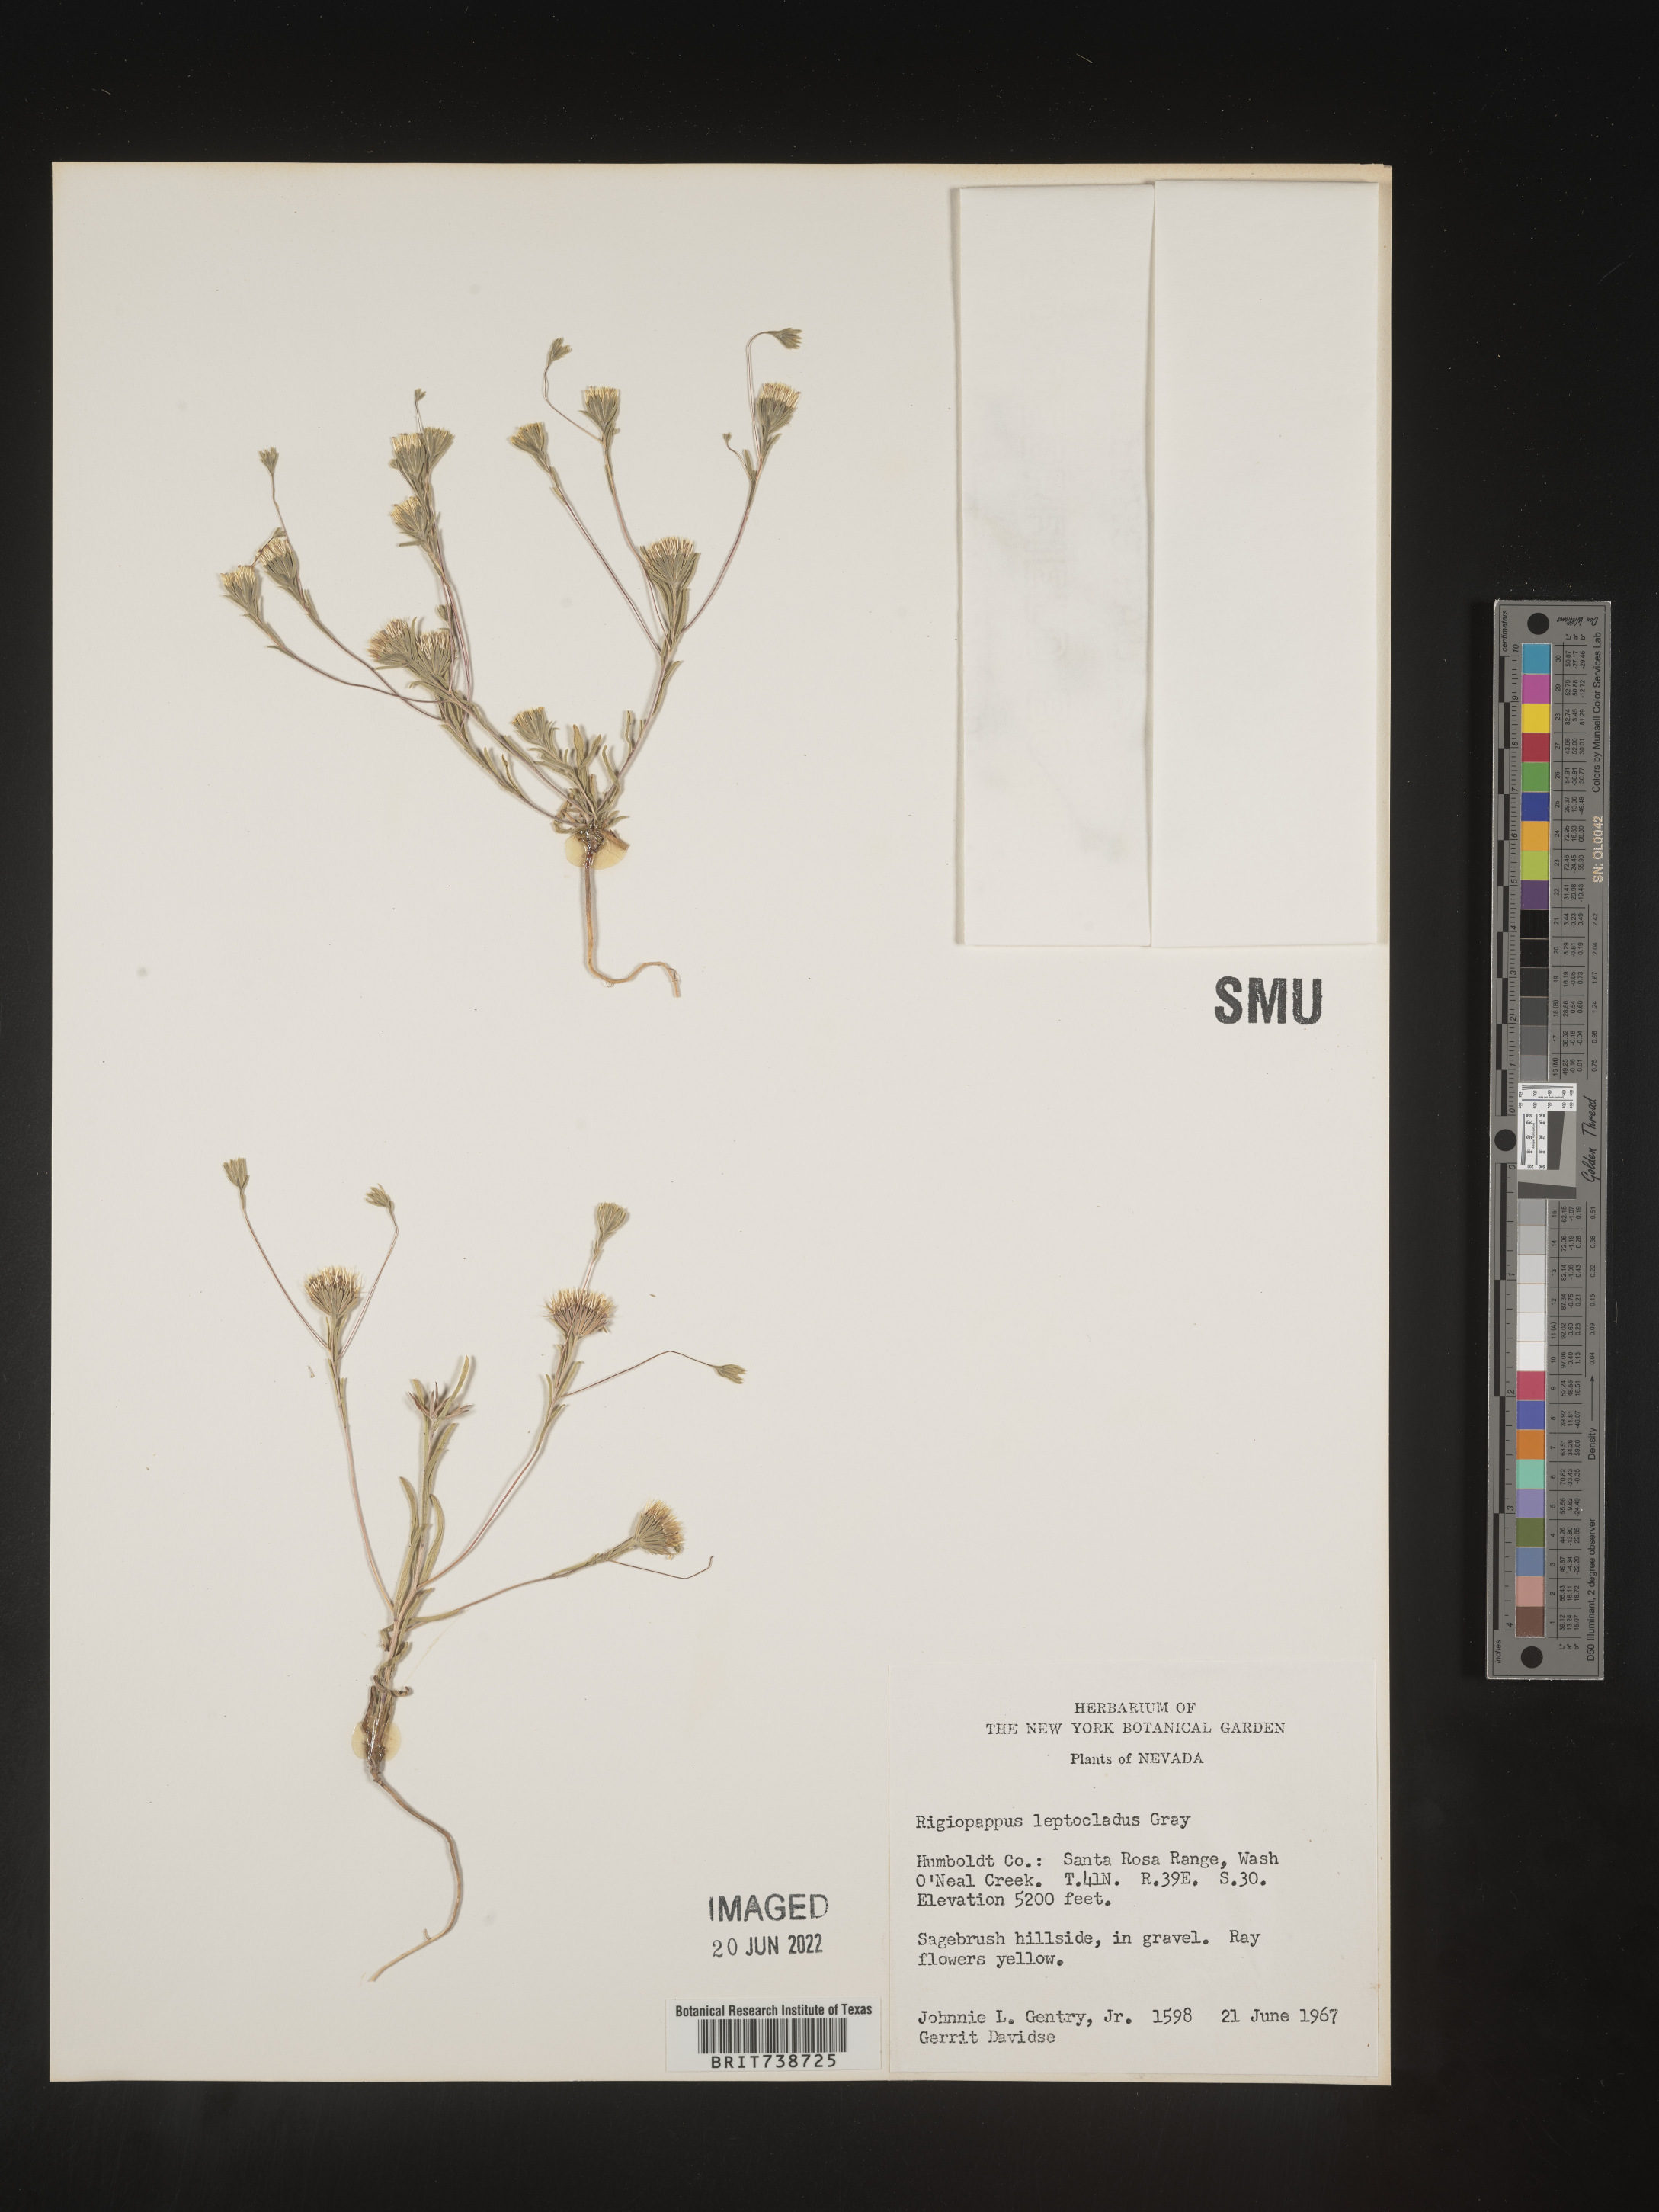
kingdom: Plantae
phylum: Tracheophyta
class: Magnoliopsida
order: Asterales
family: Asteraceae
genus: Rigiopappus
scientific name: Rigiopappus
